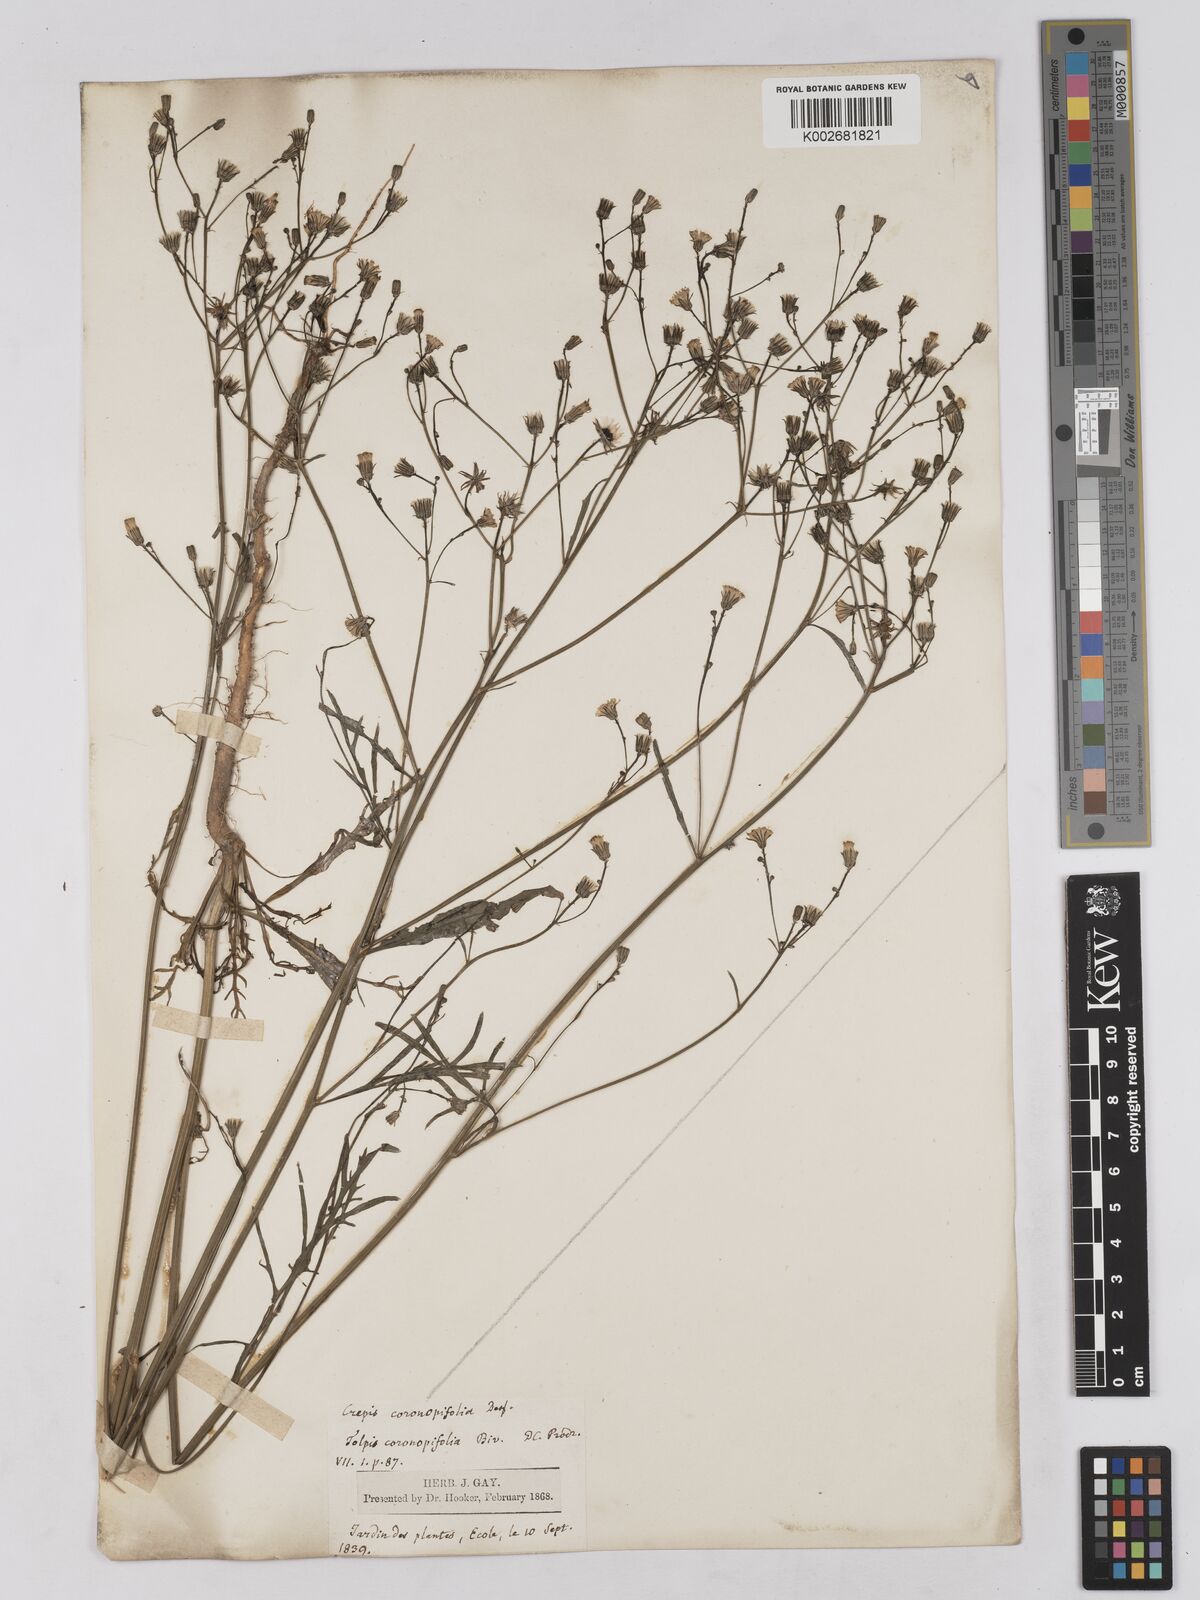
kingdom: Plantae
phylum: Tracheophyta
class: Magnoliopsida
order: Asterales
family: Asteraceae
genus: Tolpis
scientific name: Tolpis coronopifolia
